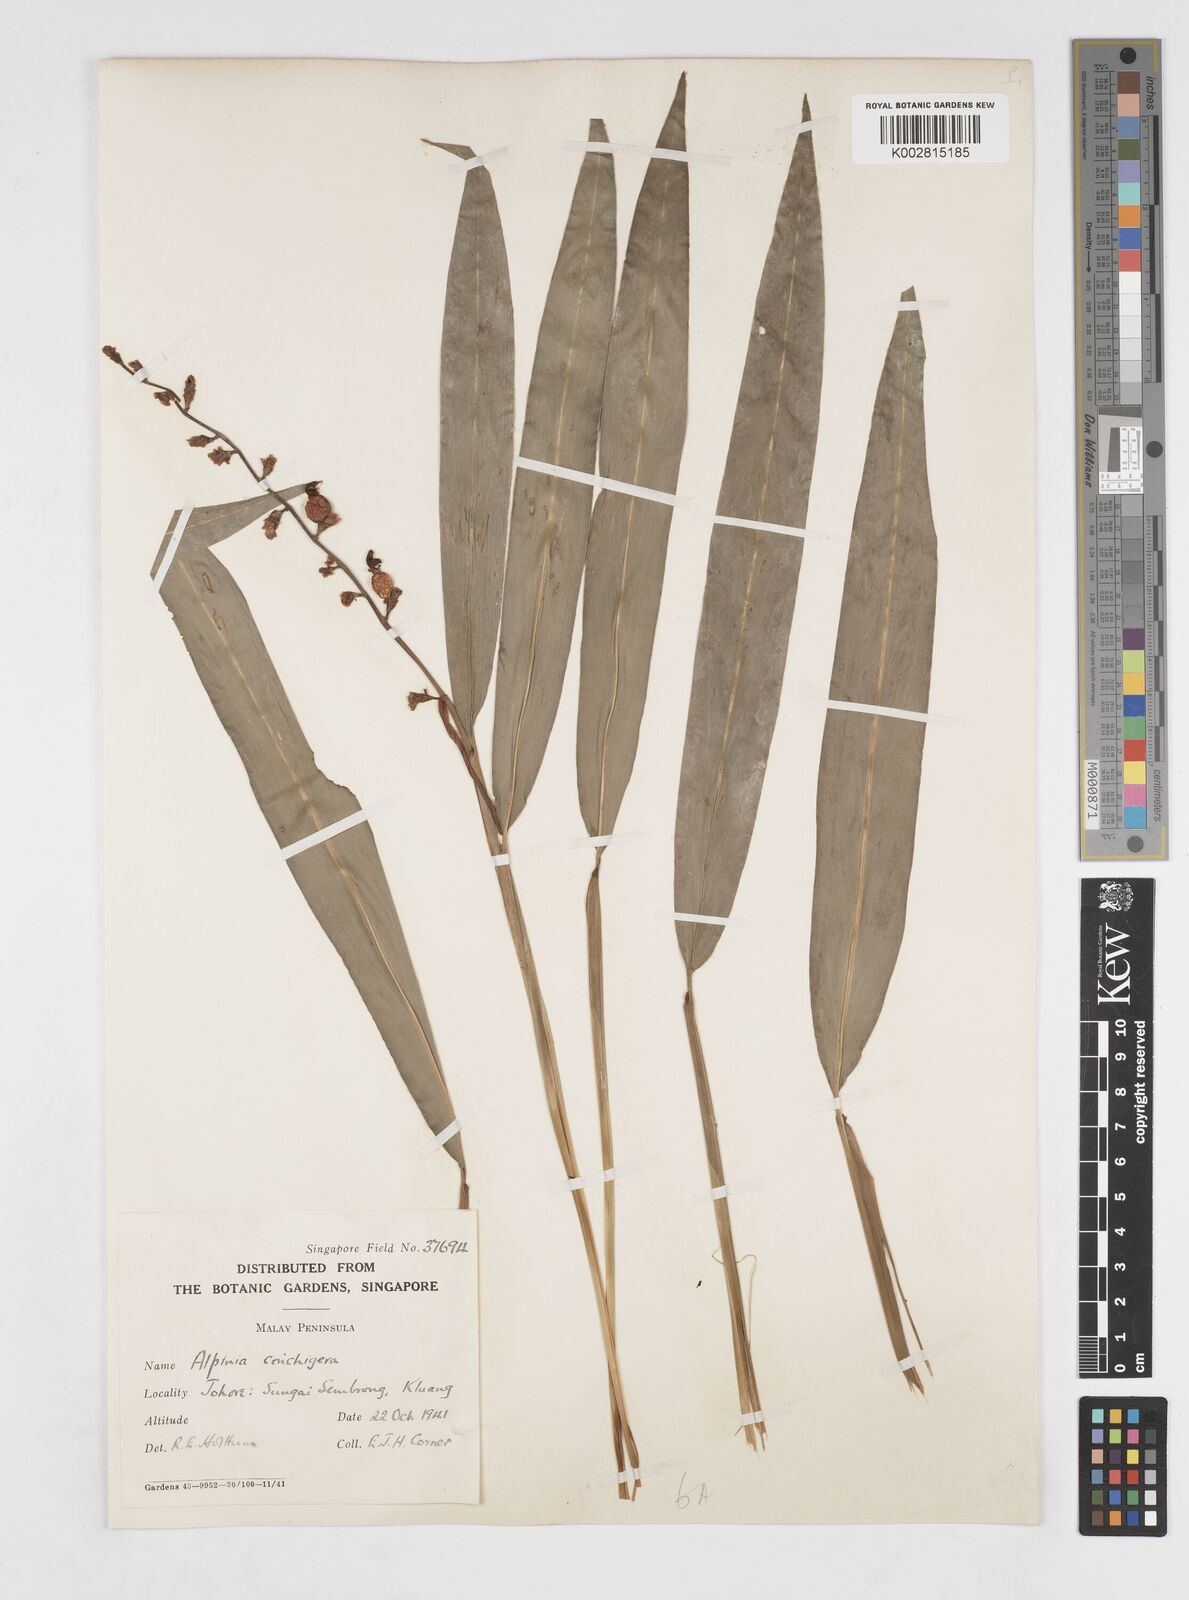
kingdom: Plantae
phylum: Tracheophyta
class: Liliopsida
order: Zingiberales
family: Zingiberaceae
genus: Alpinia
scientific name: Alpinia conchigera
